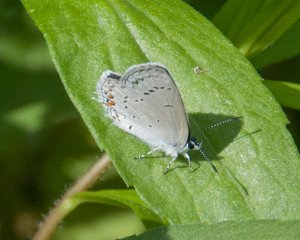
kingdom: Animalia
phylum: Arthropoda
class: Insecta
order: Lepidoptera
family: Lycaenidae
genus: Elkalyce
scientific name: Elkalyce comyntas
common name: Eastern Tailed-Blue
